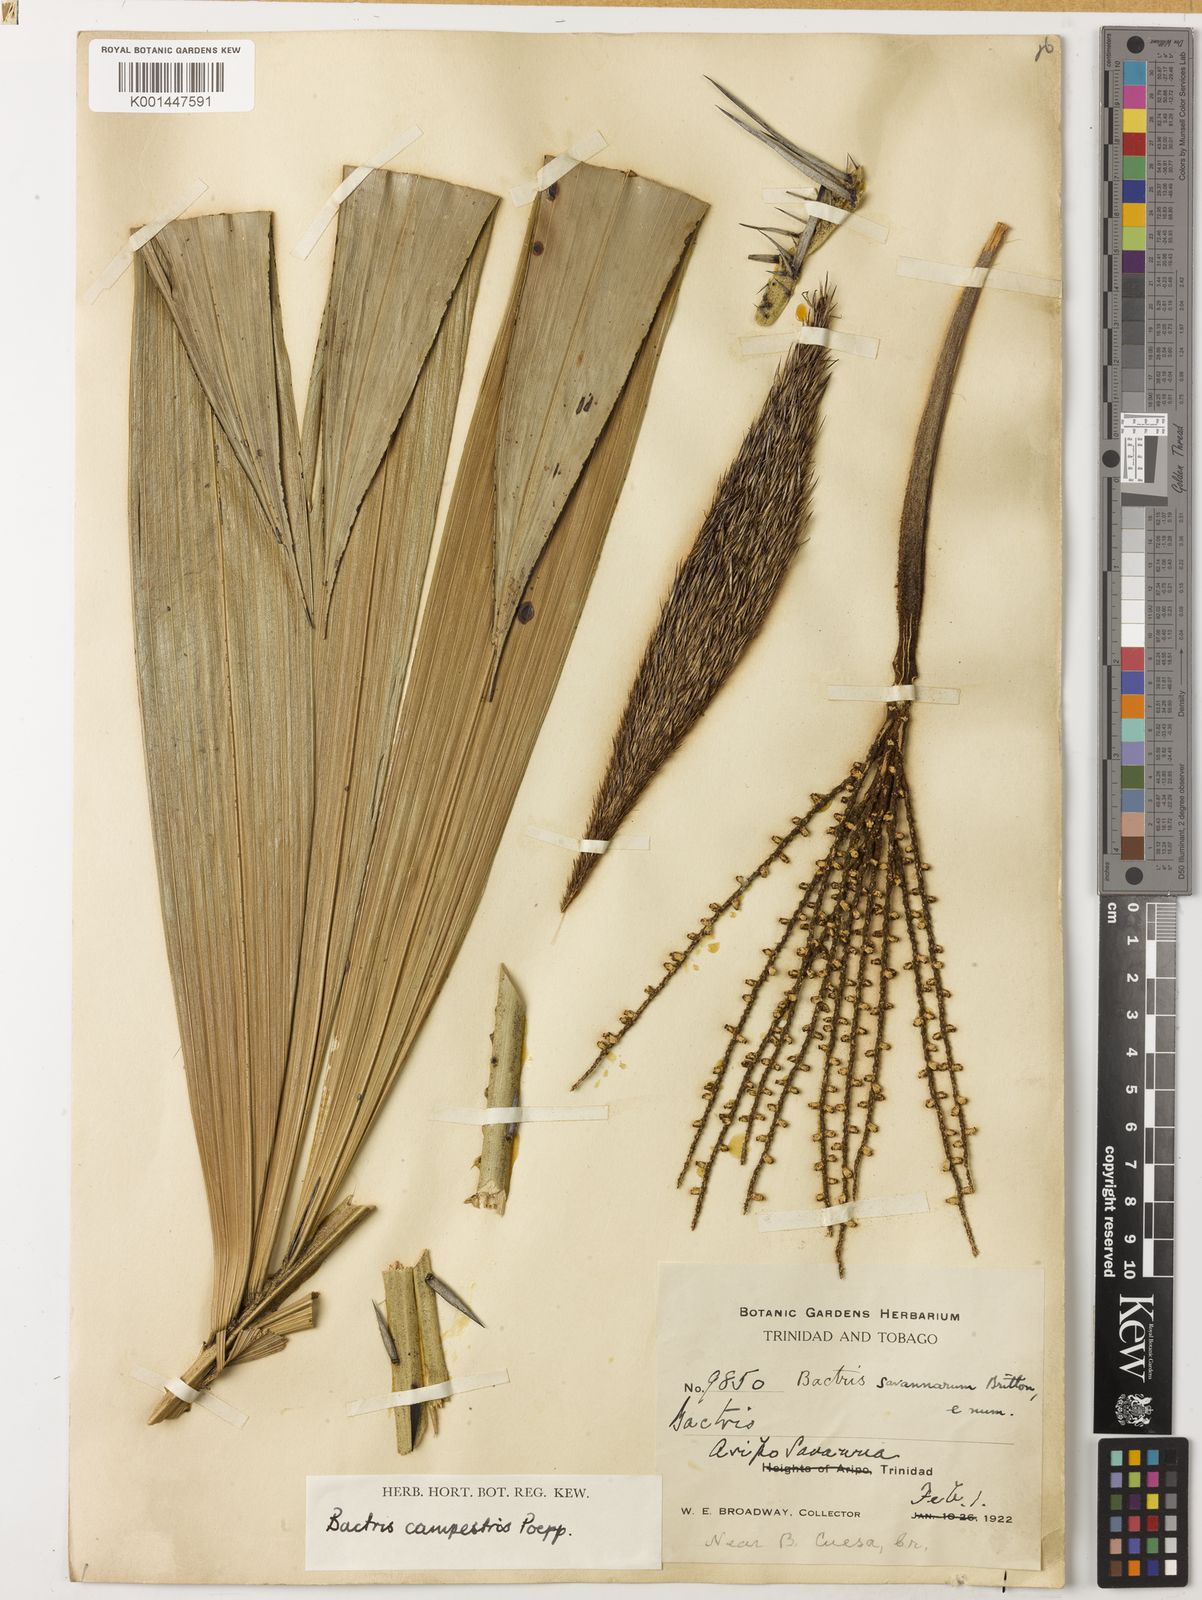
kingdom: Plantae
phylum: Tracheophyta
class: Liliopsida
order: Arecales
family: Arecaceae
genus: Bactris
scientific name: Bactris campestris
